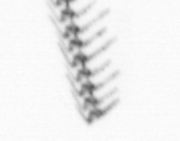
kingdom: Chromista
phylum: Myzozoa
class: Dinophyceae
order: Gonyaulacales
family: Ceratiaceae
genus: Ceratium
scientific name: Ceratium
